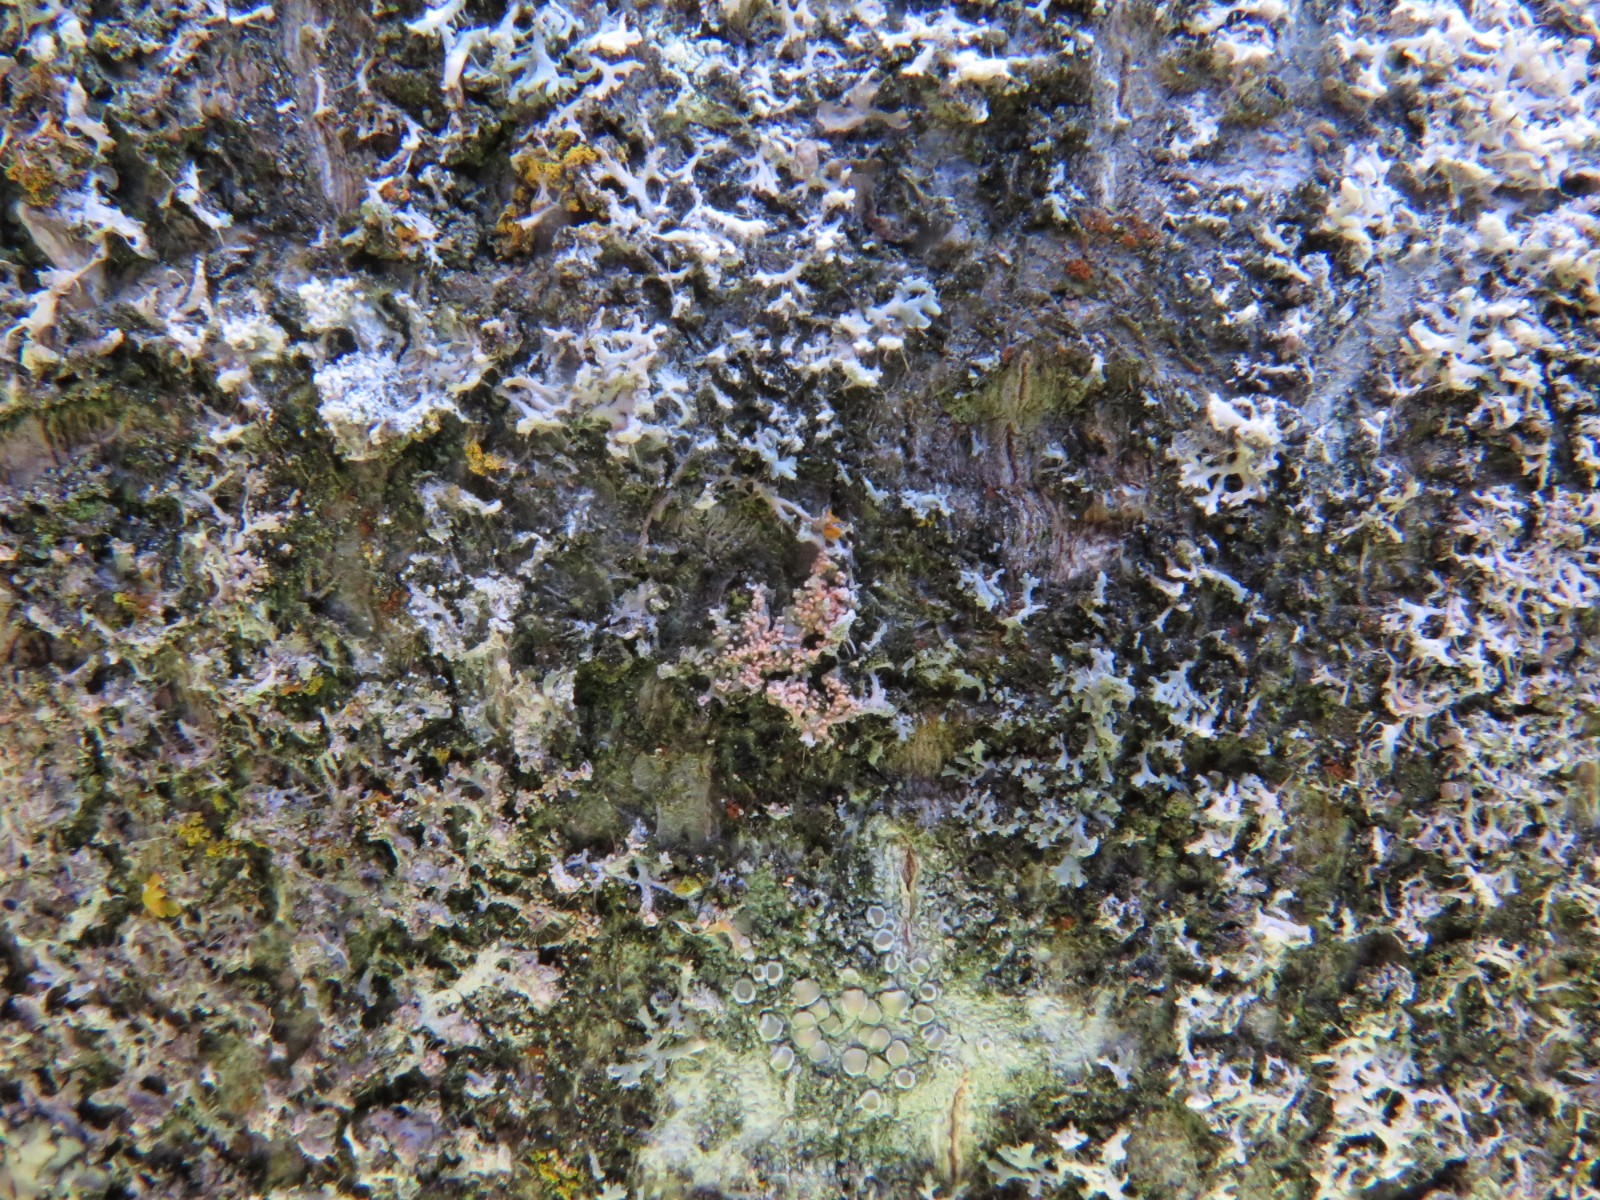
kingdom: Fungi
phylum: Basidiomycota
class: Agaricomycetes
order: Corticiales
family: Corticiaceae
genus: Erythricium
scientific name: Erythricium aurantiacum
